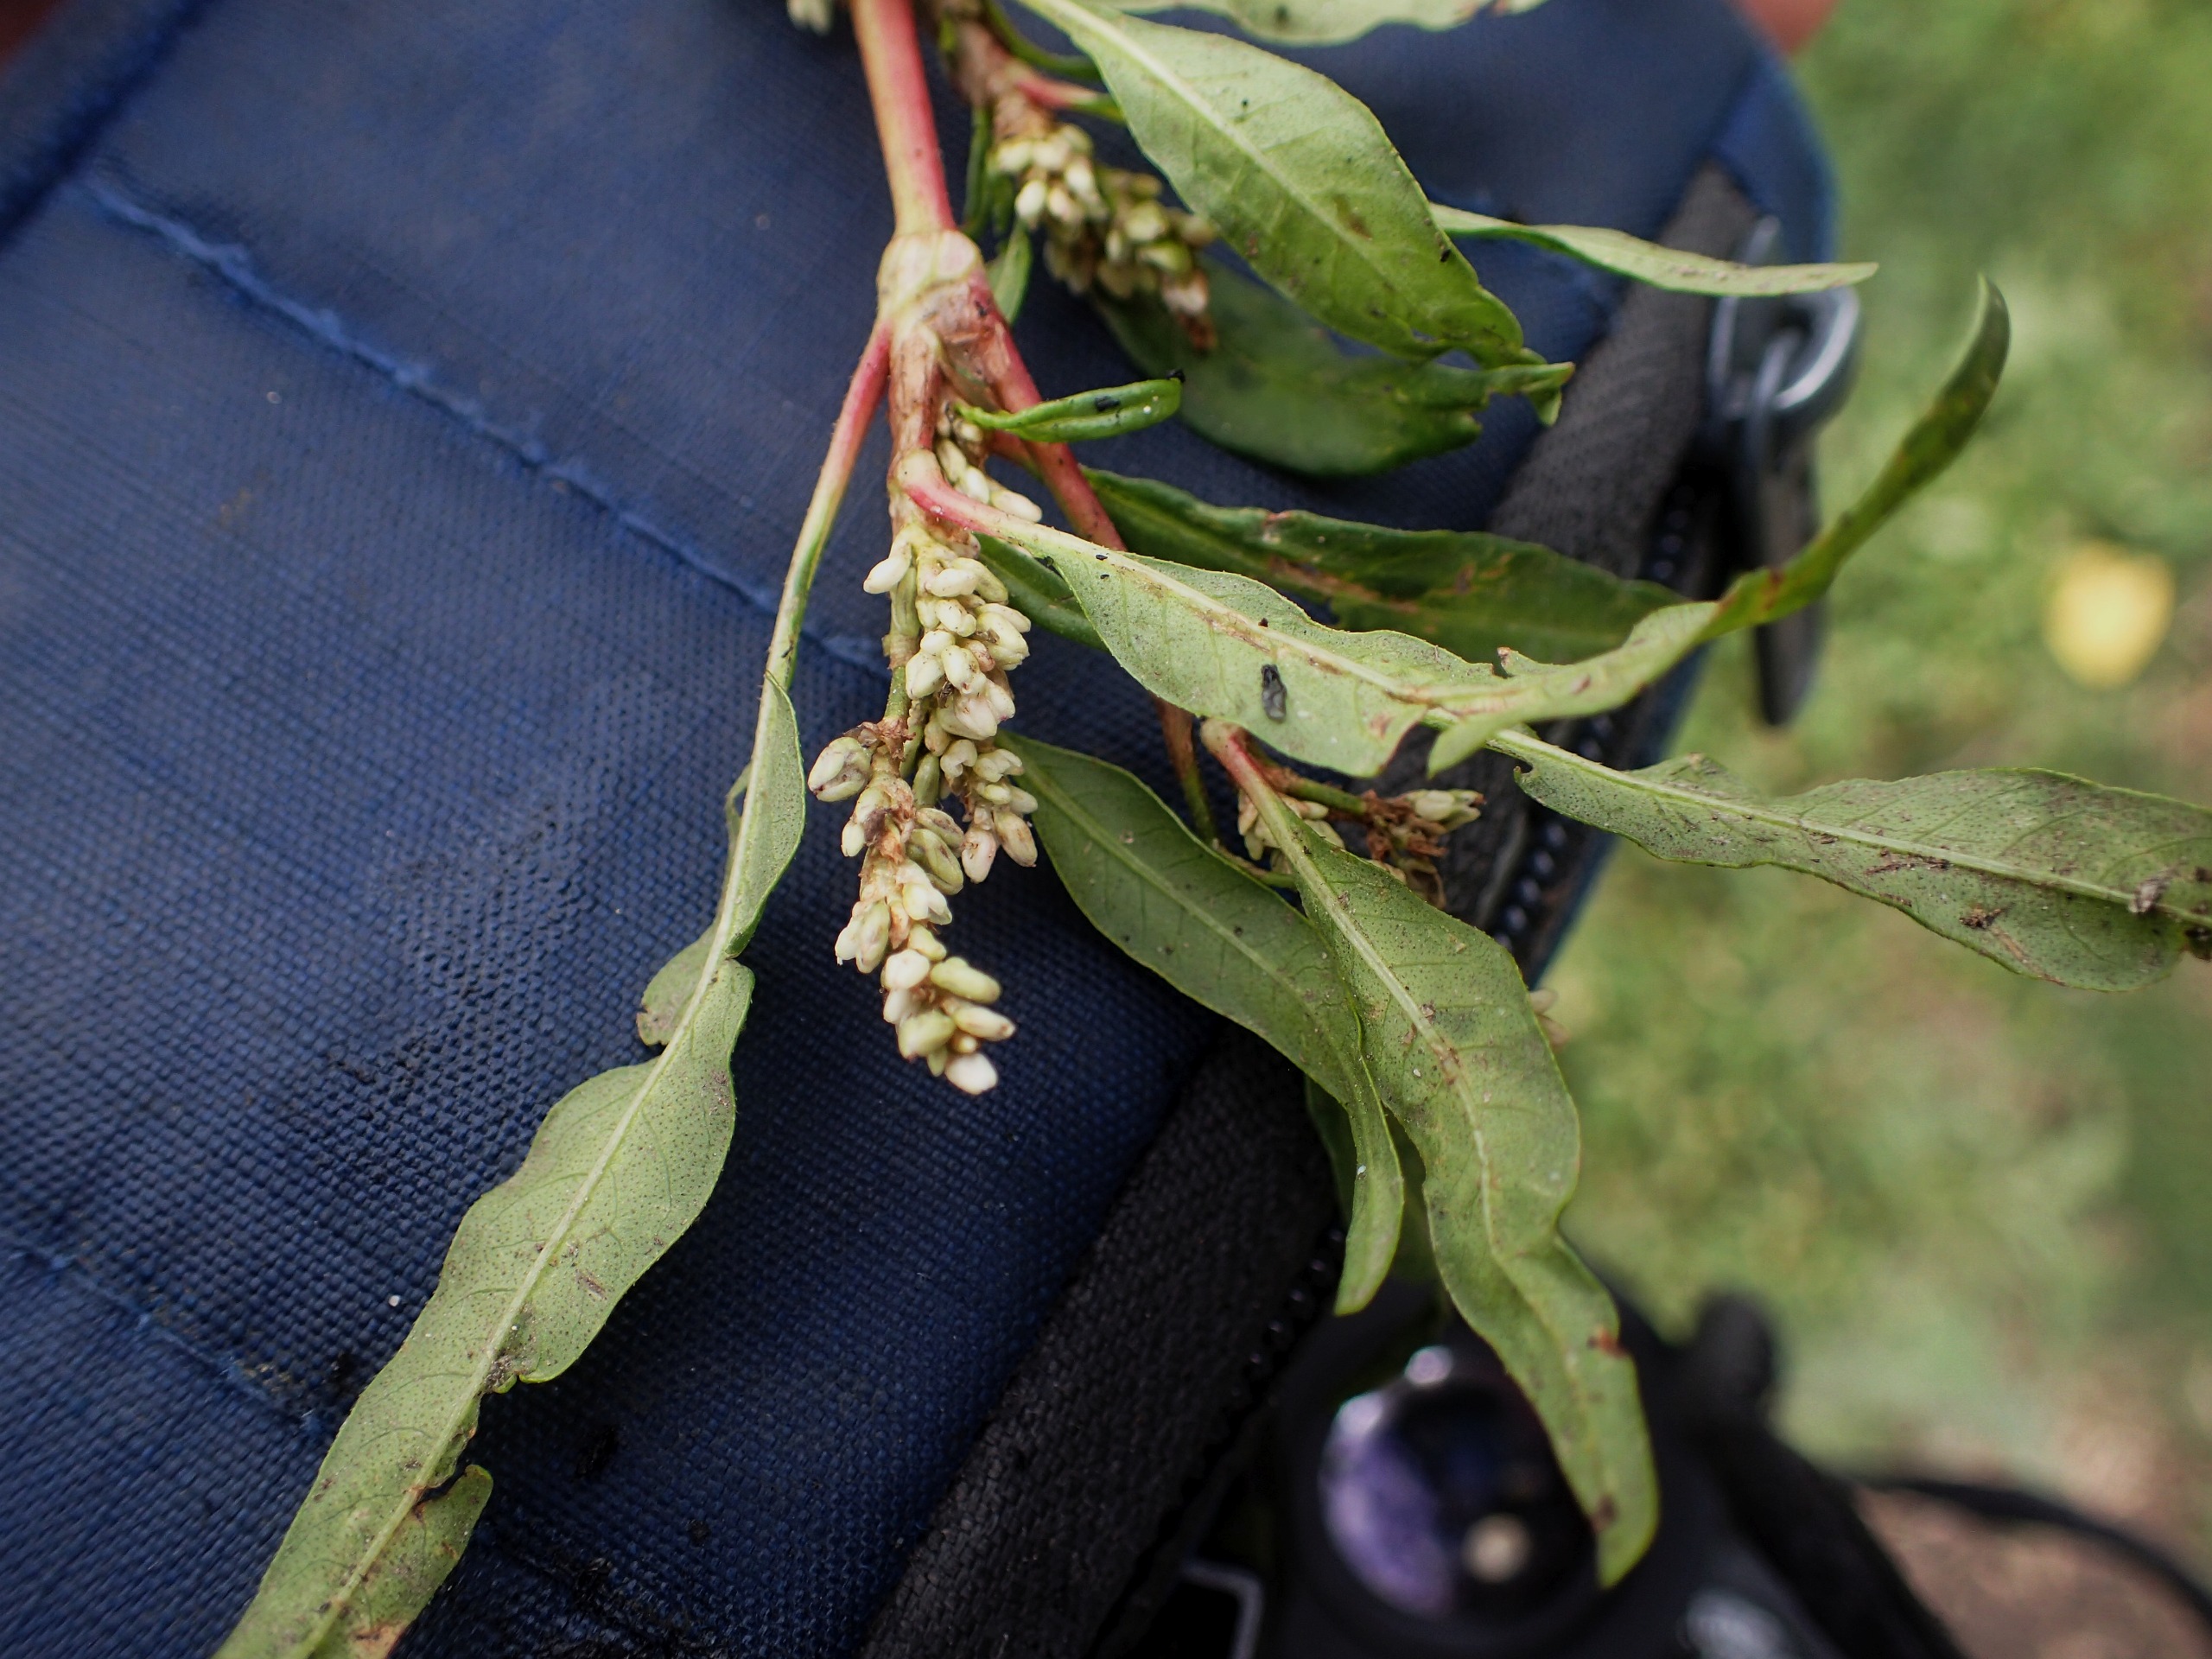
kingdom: Plantae
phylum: Tracheophyta
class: Magnoliopsida
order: Caryophyllales
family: Polygonaceae
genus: Persicaria
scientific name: Persicaria lapathifolia
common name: Knudet pileurt
